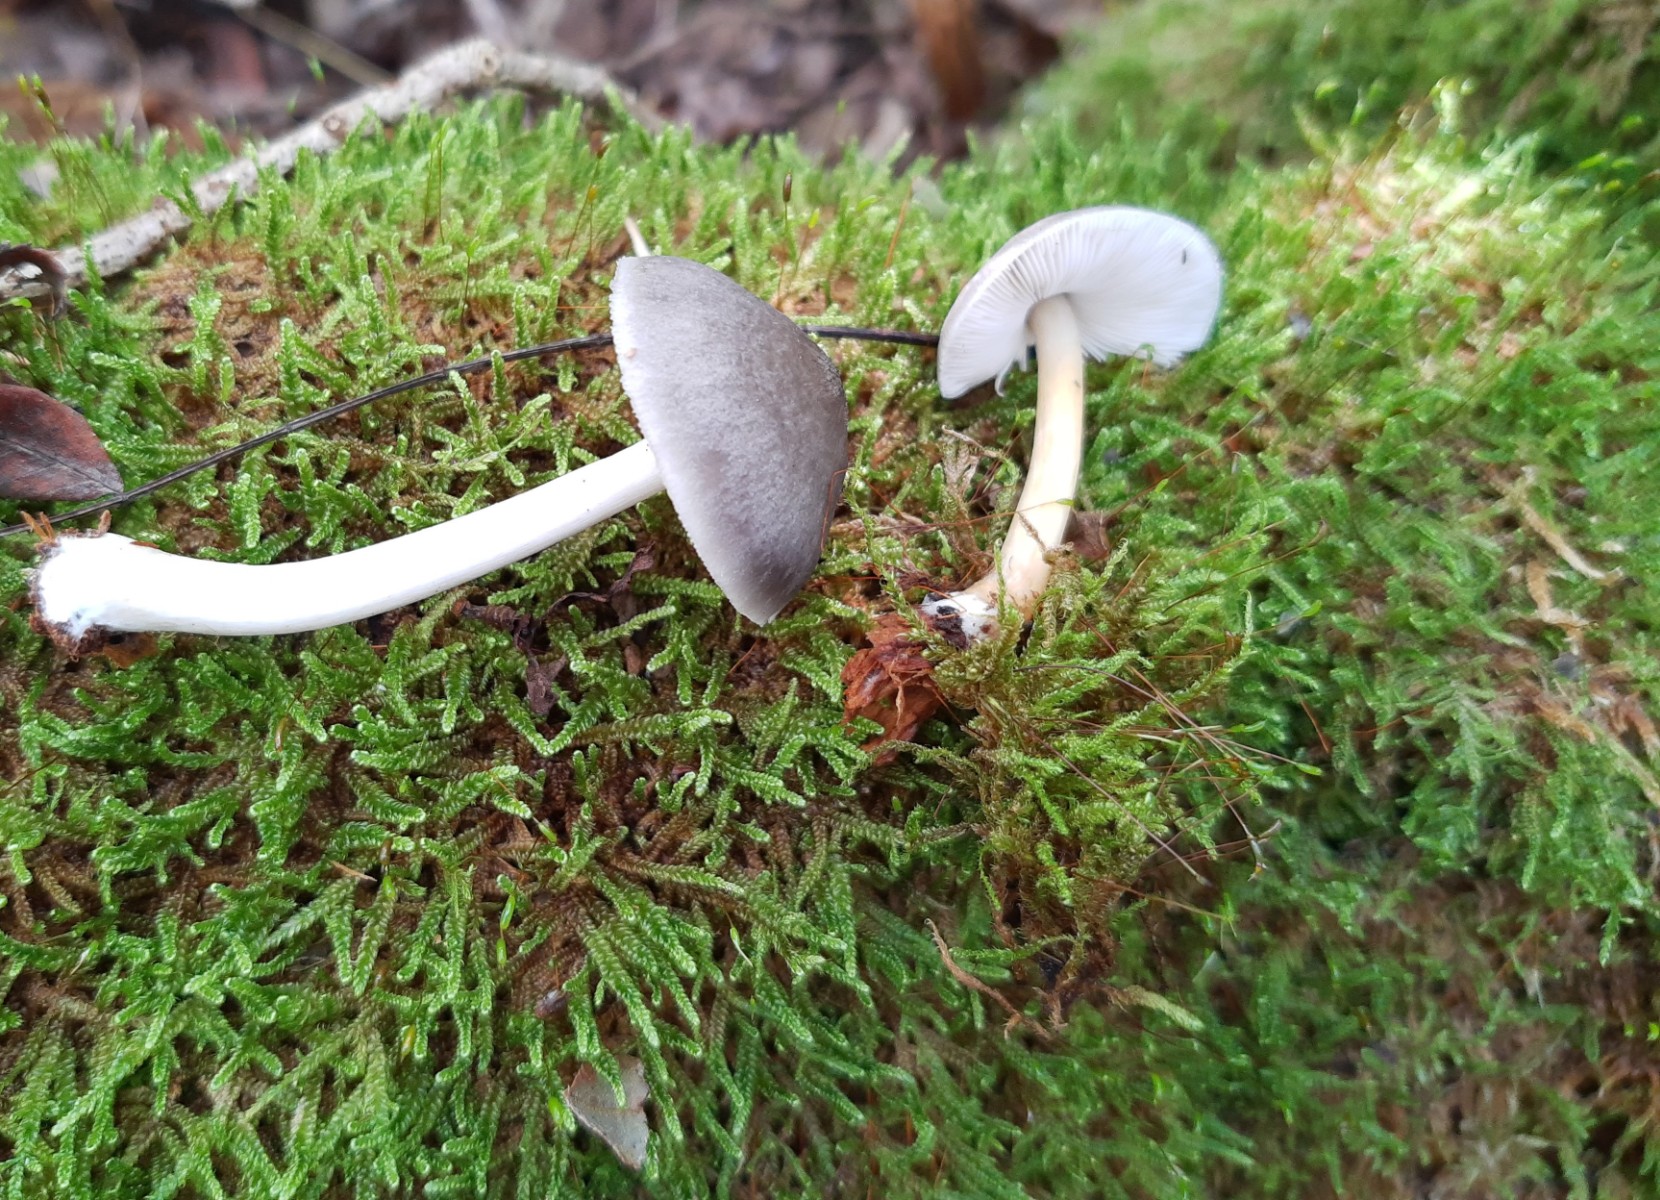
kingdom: Fungi
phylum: Basidiomycota
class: Agaricomycetes
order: Agaricales
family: Pluteaceae
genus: Pluteus
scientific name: Pluteus salicinus
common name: stiv skærmhat
